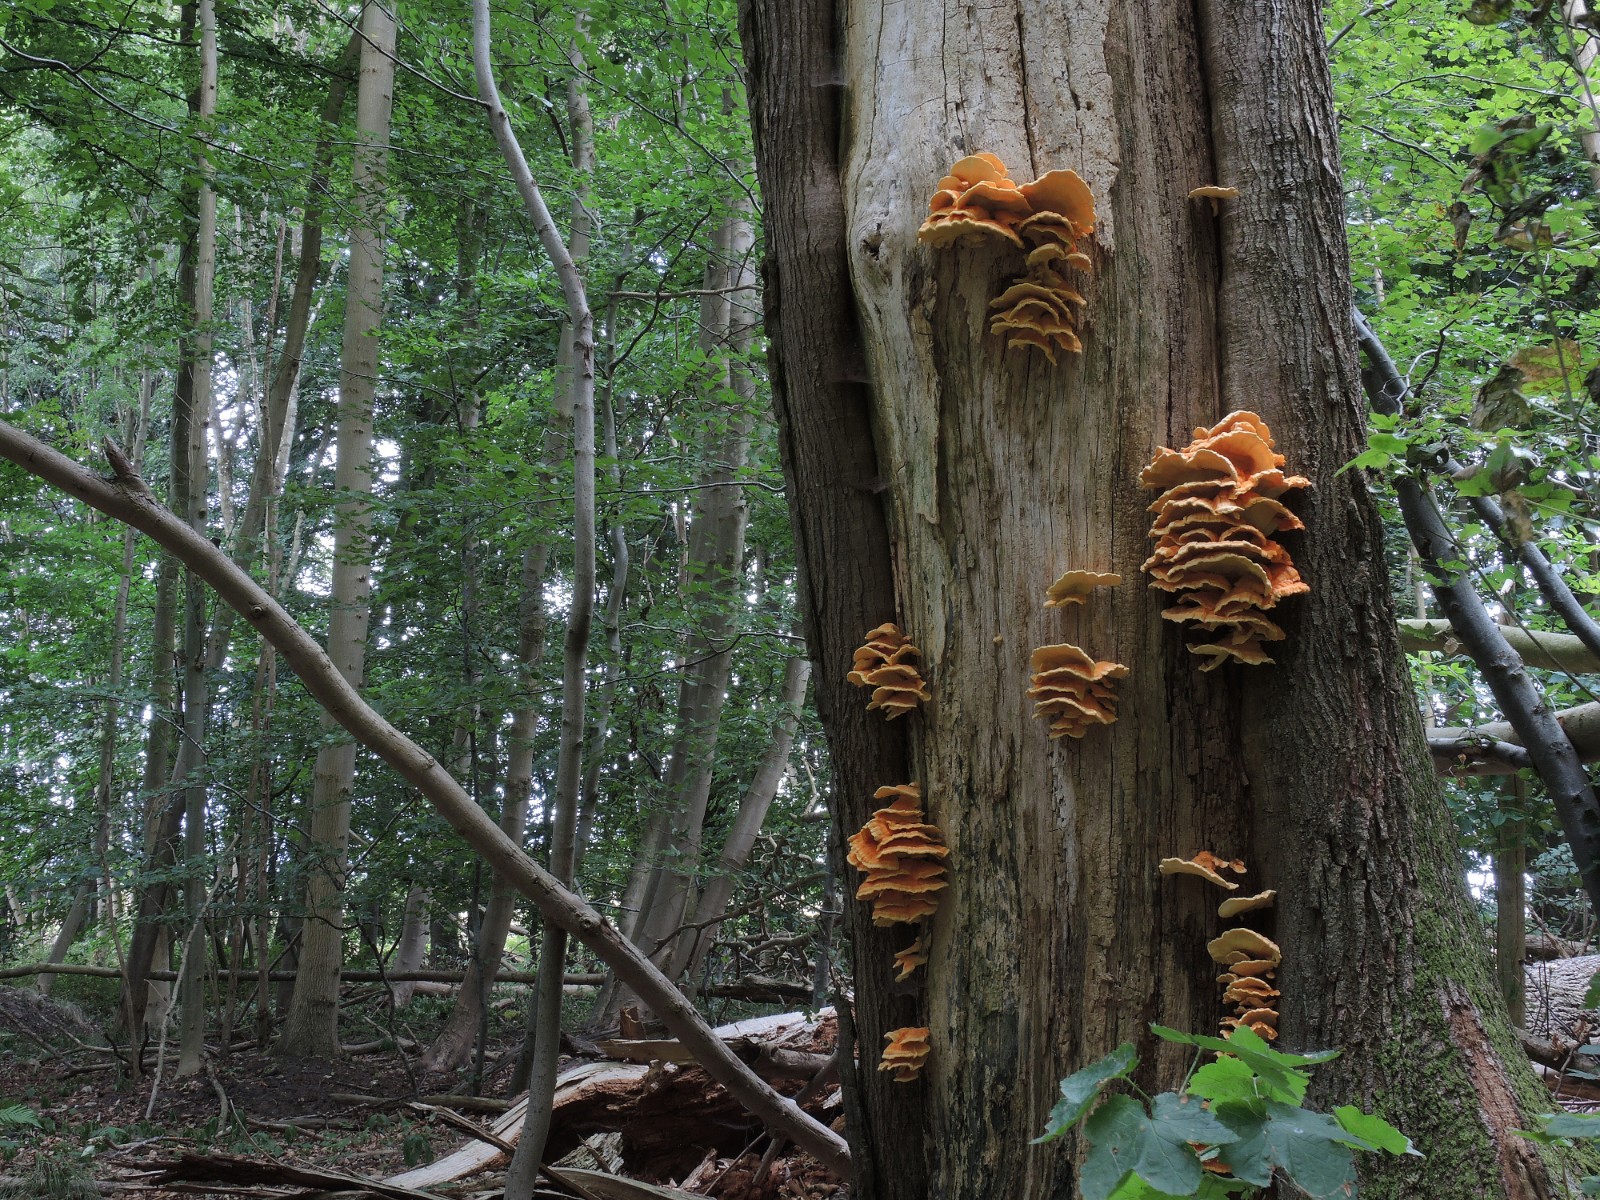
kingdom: Fungi
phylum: Basidiomycota
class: Agaricomycetes
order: Polyporales
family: Laetiporaceae
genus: Laetiporus
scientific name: Laetiporus sulphureus
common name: svovlporesvamp
